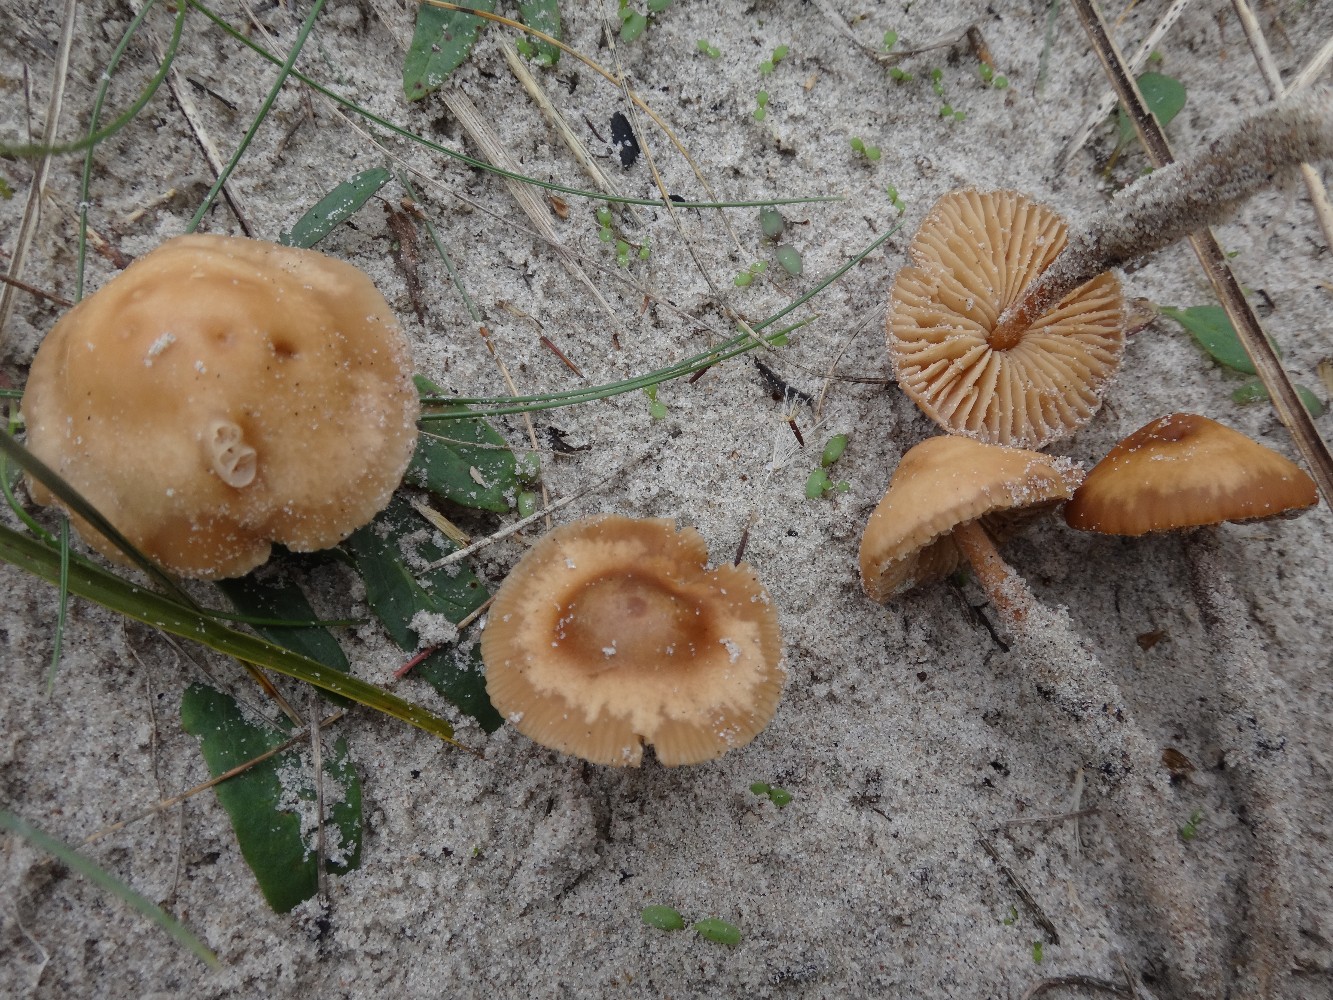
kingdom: Fungi
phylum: Basidiomycota
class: Agaricomycetes
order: Agaricales
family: Marasmiaceae
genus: Marasmius
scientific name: Marasmius oreades
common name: elledans-bruskhat
